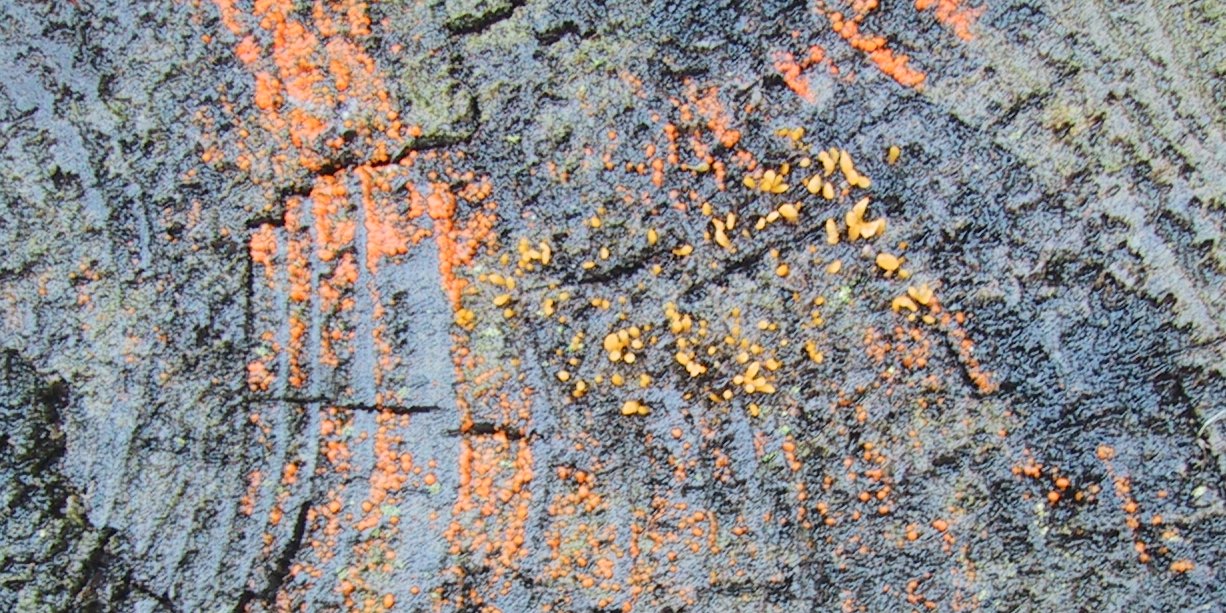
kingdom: Fungi
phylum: Basidiomycota
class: Dacrymycetes
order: Dacrymycetales
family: Dacrymycetaceae
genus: Calocera
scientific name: Calocera cornea
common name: liden guldgaffel
